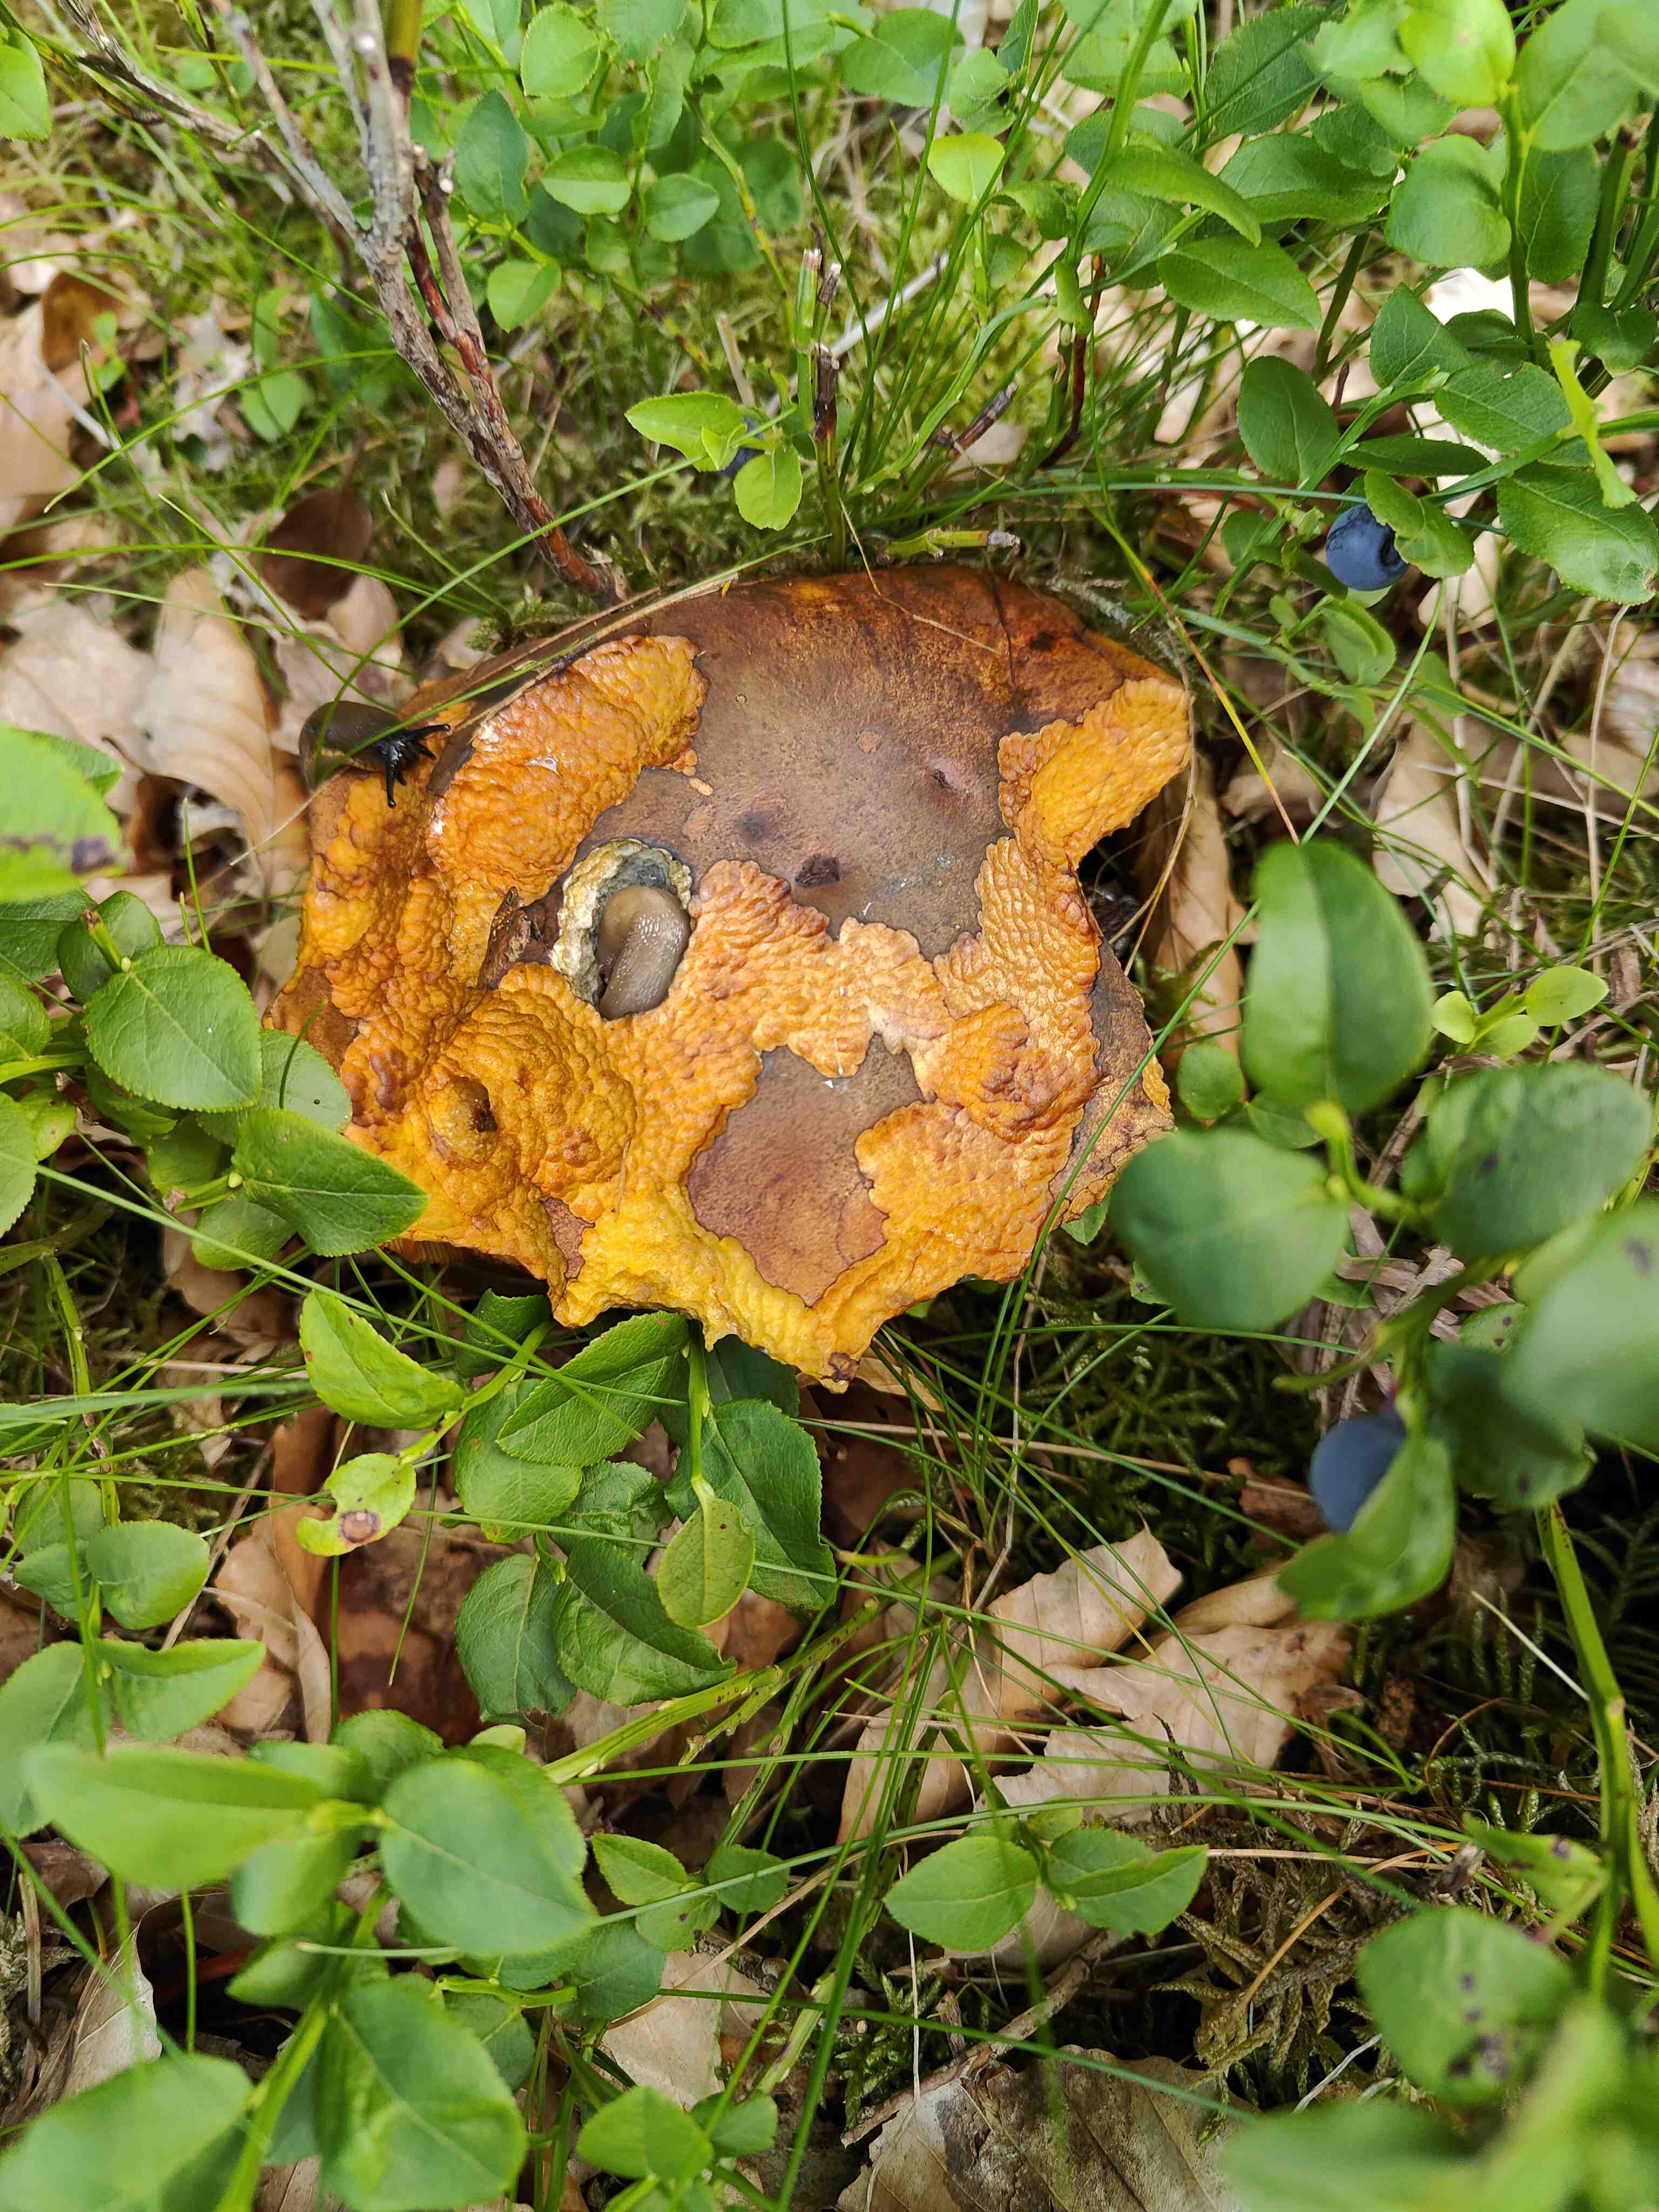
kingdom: Fungi
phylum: Basidiomycota
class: Agaricomycetes
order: Boletales
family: Boletaceae
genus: Neoboletus
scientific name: Neoboletus erythropus
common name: punktstokket indigorørhat
